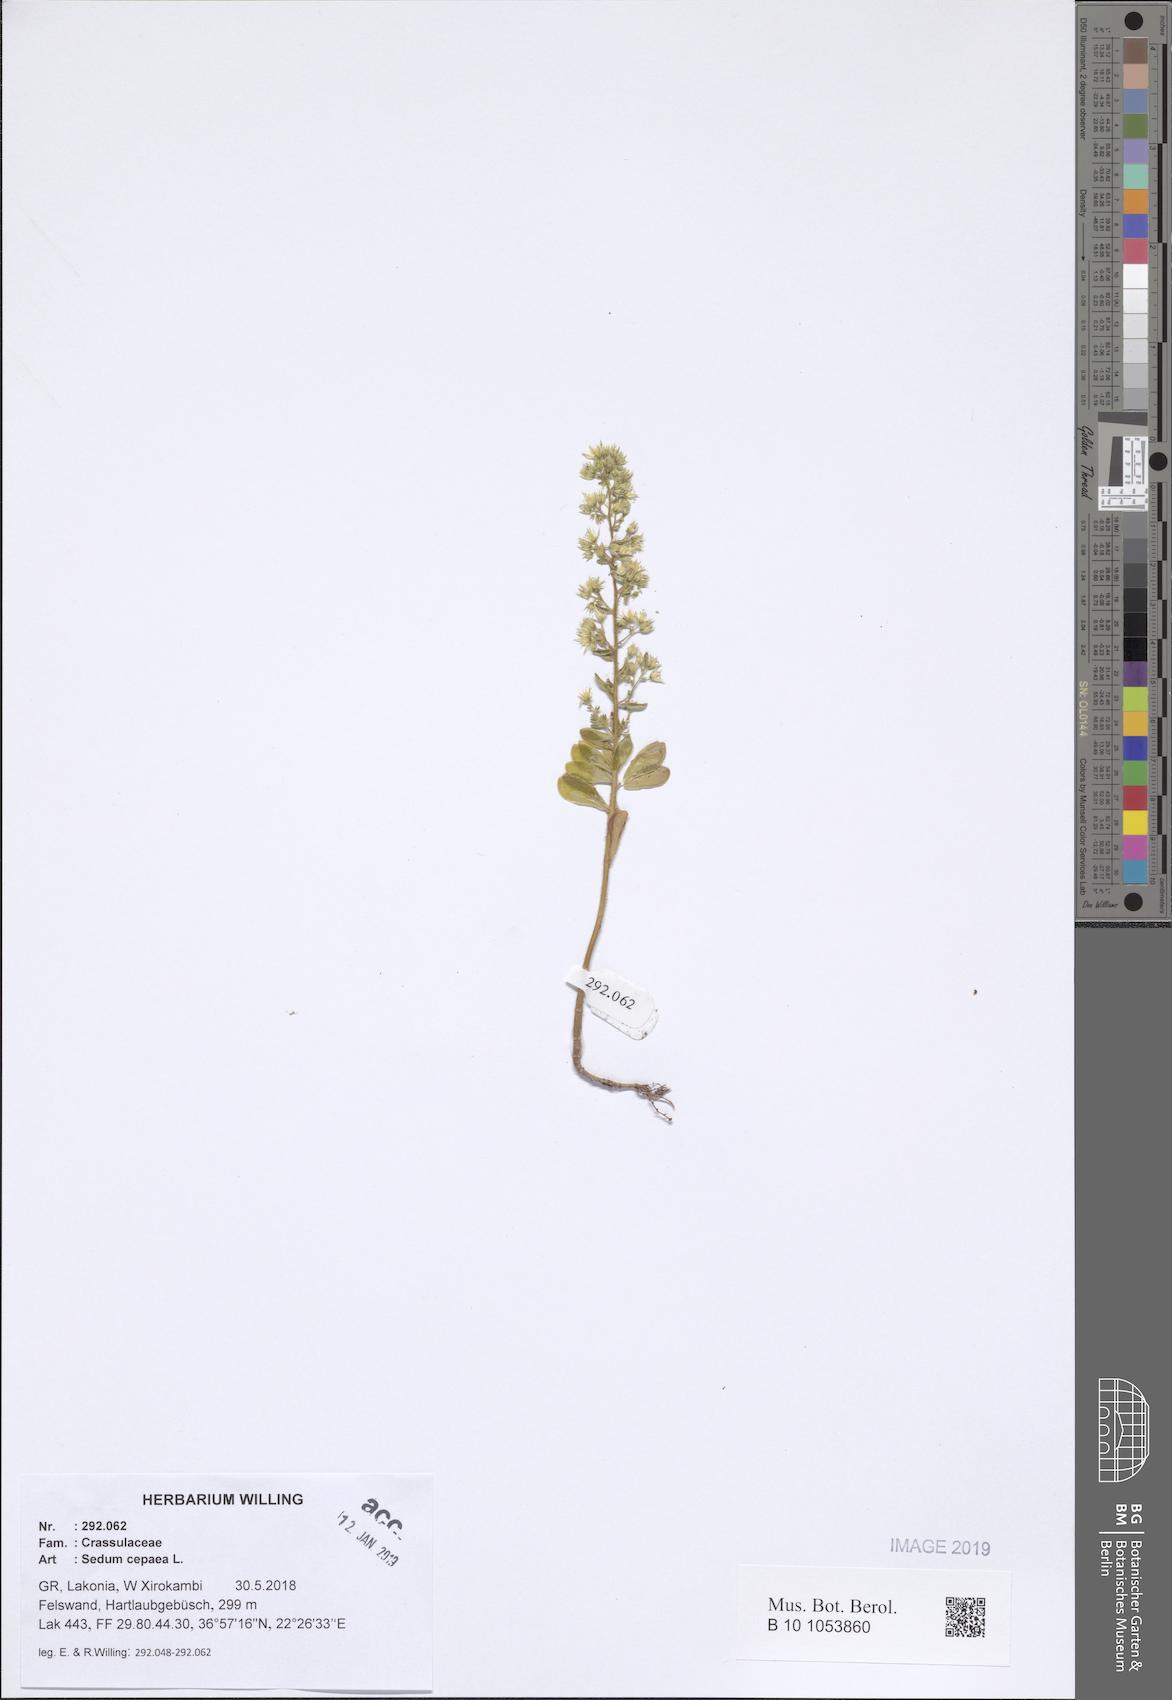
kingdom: Plantae
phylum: Tracheophyta
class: Magnoliopsida
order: Saxifragales
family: Crassulaceae
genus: Sedum
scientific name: Sedum cepaea
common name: Pink stonecrop
